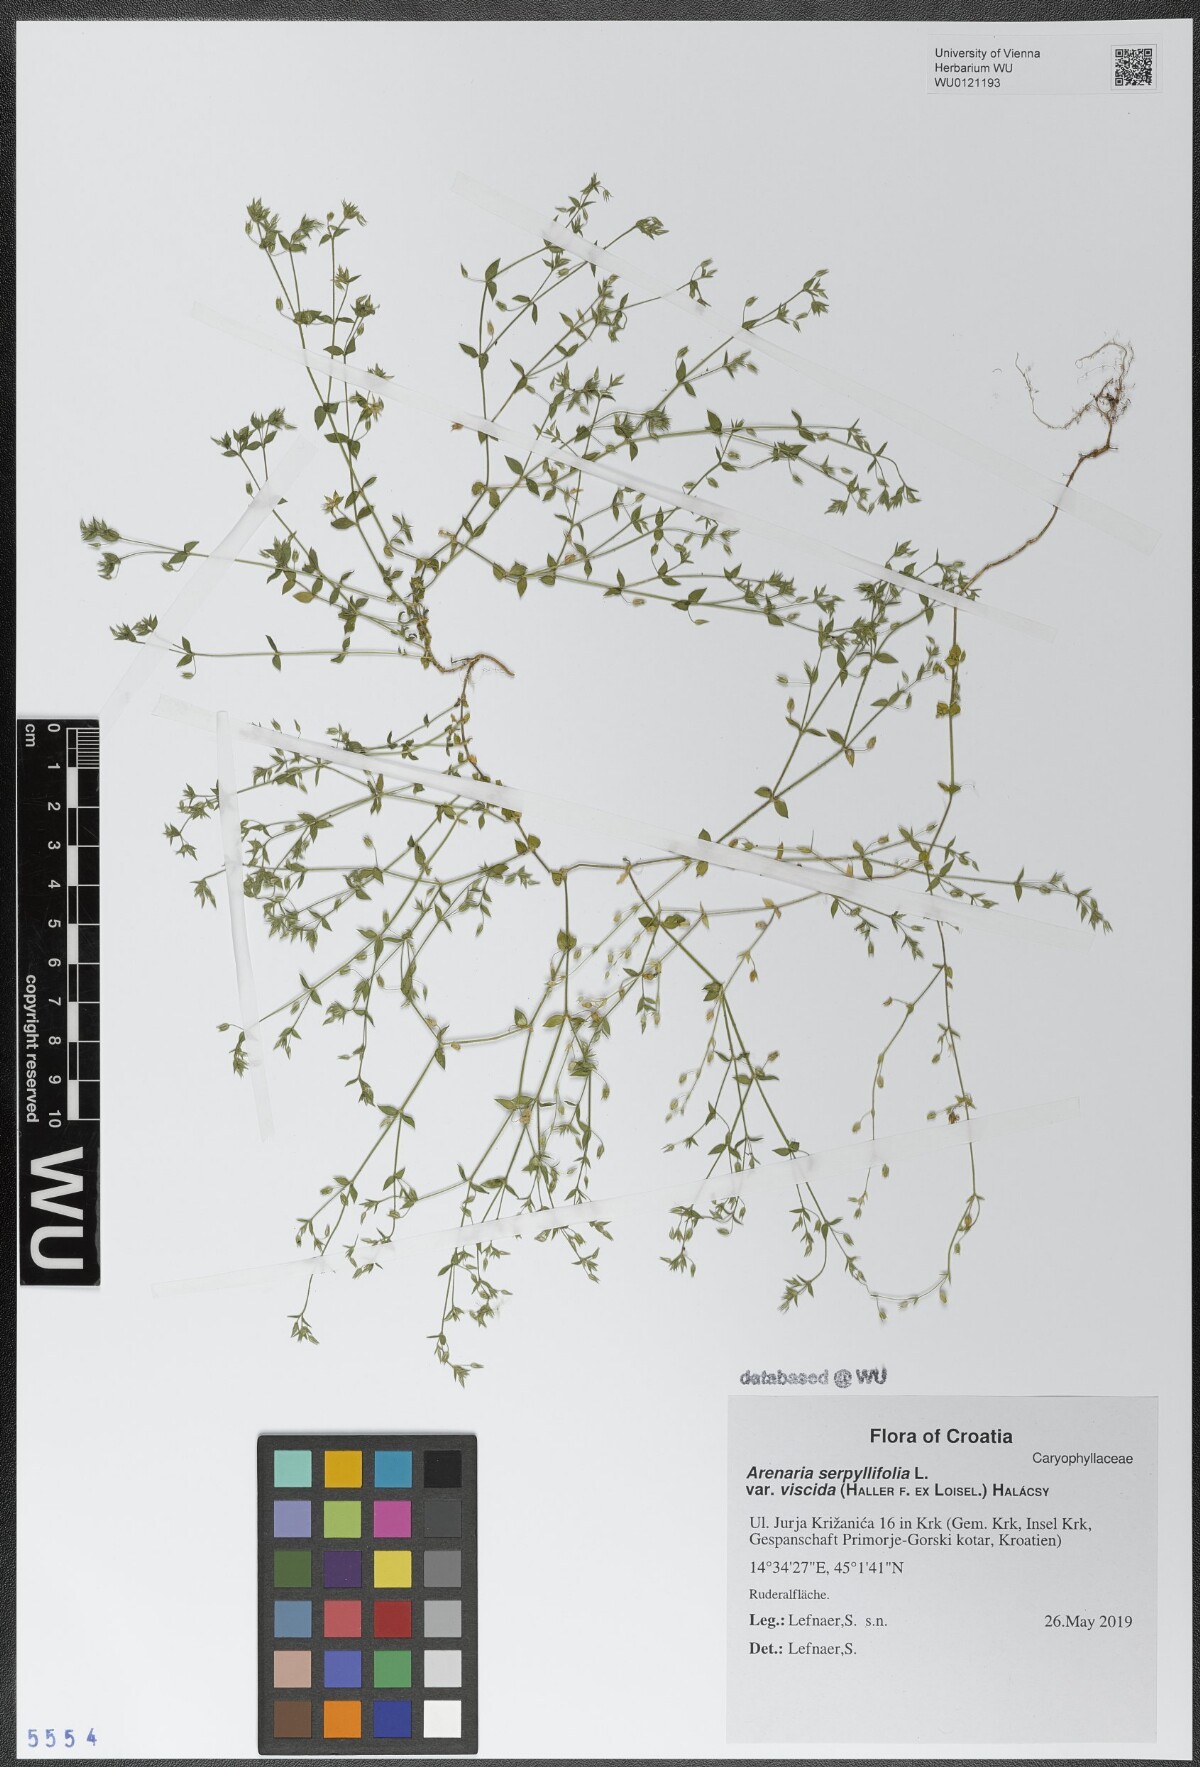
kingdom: Plantae
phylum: Tracheophyta
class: Magnoliopsida
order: Caryophyllales
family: Caryophyllaceae
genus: Arenaria
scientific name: Arenaria serpyllifolia
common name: Thyme-leaved sandwort
